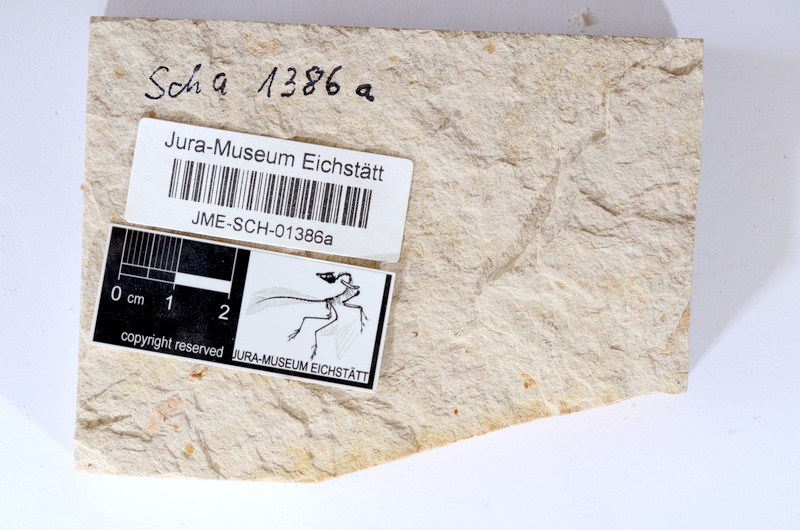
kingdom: Animalia
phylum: Chordata
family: Ascalaboidae
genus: Tharsis
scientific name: Tharsis dubius
